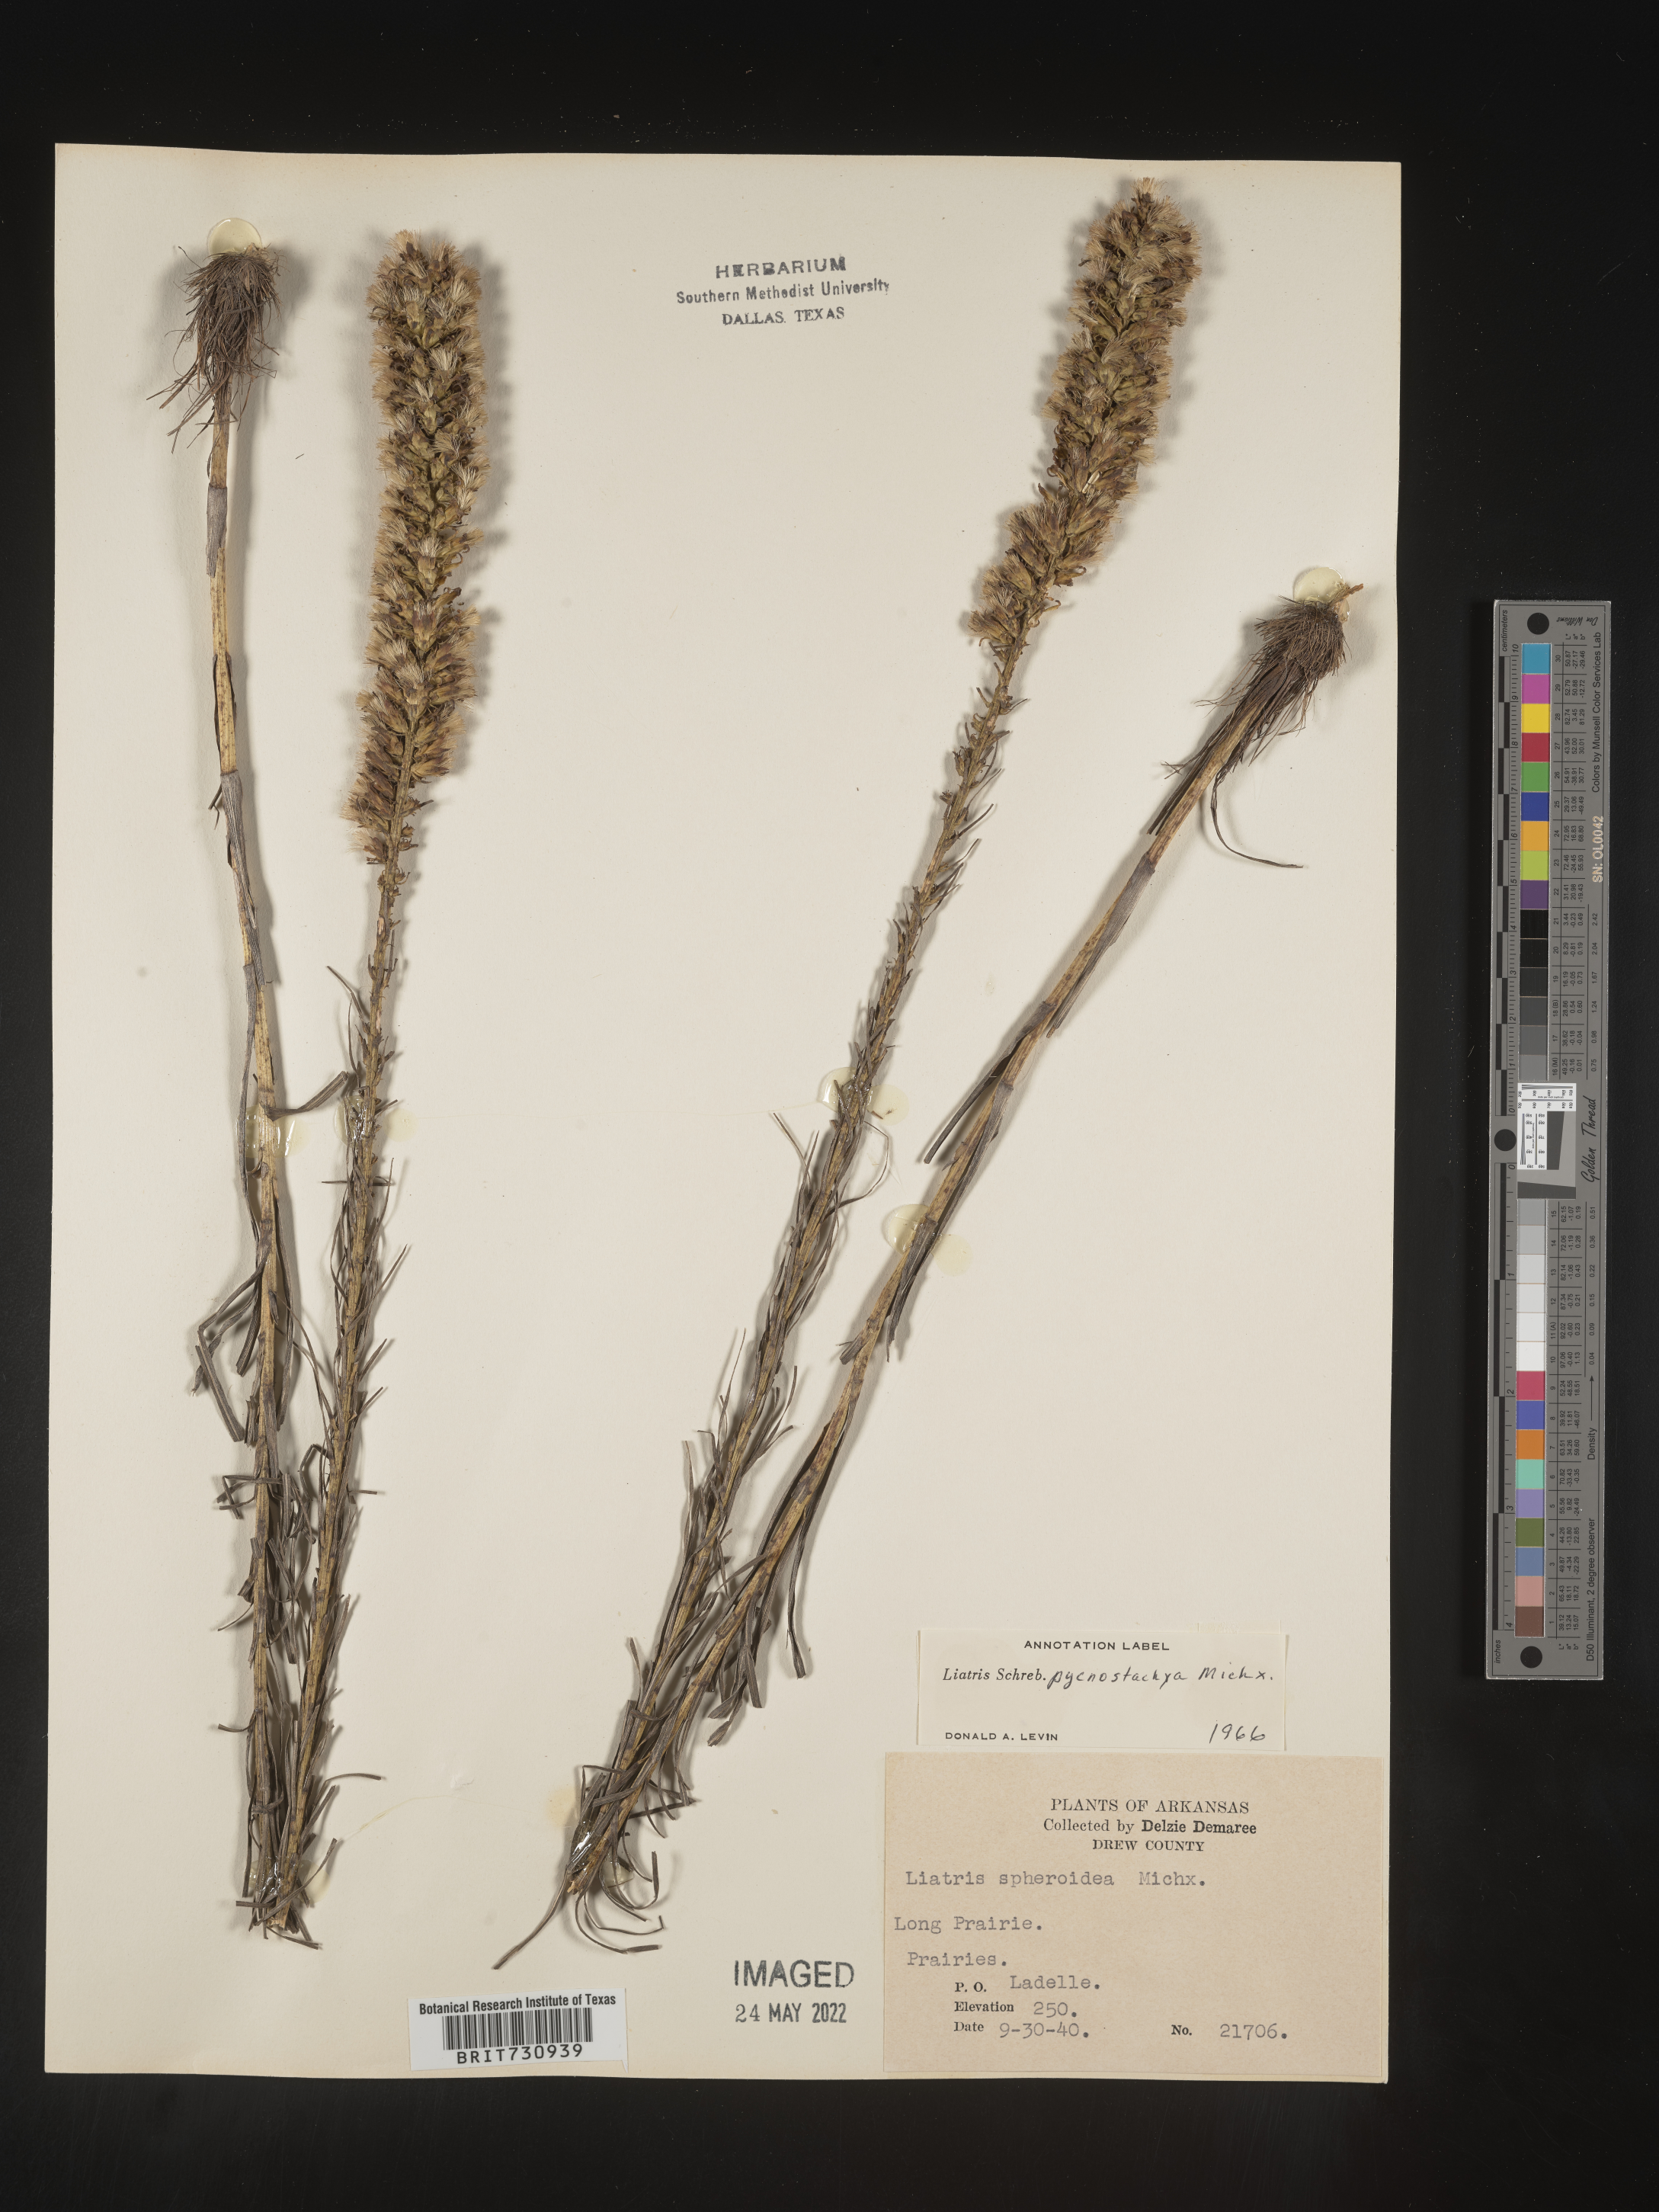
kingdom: Plantae
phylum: Tracheophyta
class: Magnoliopsida
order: Asterales
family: Asteraceae
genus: Liatris
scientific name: Liatris pycnostachya
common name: Cattail gayfeather
